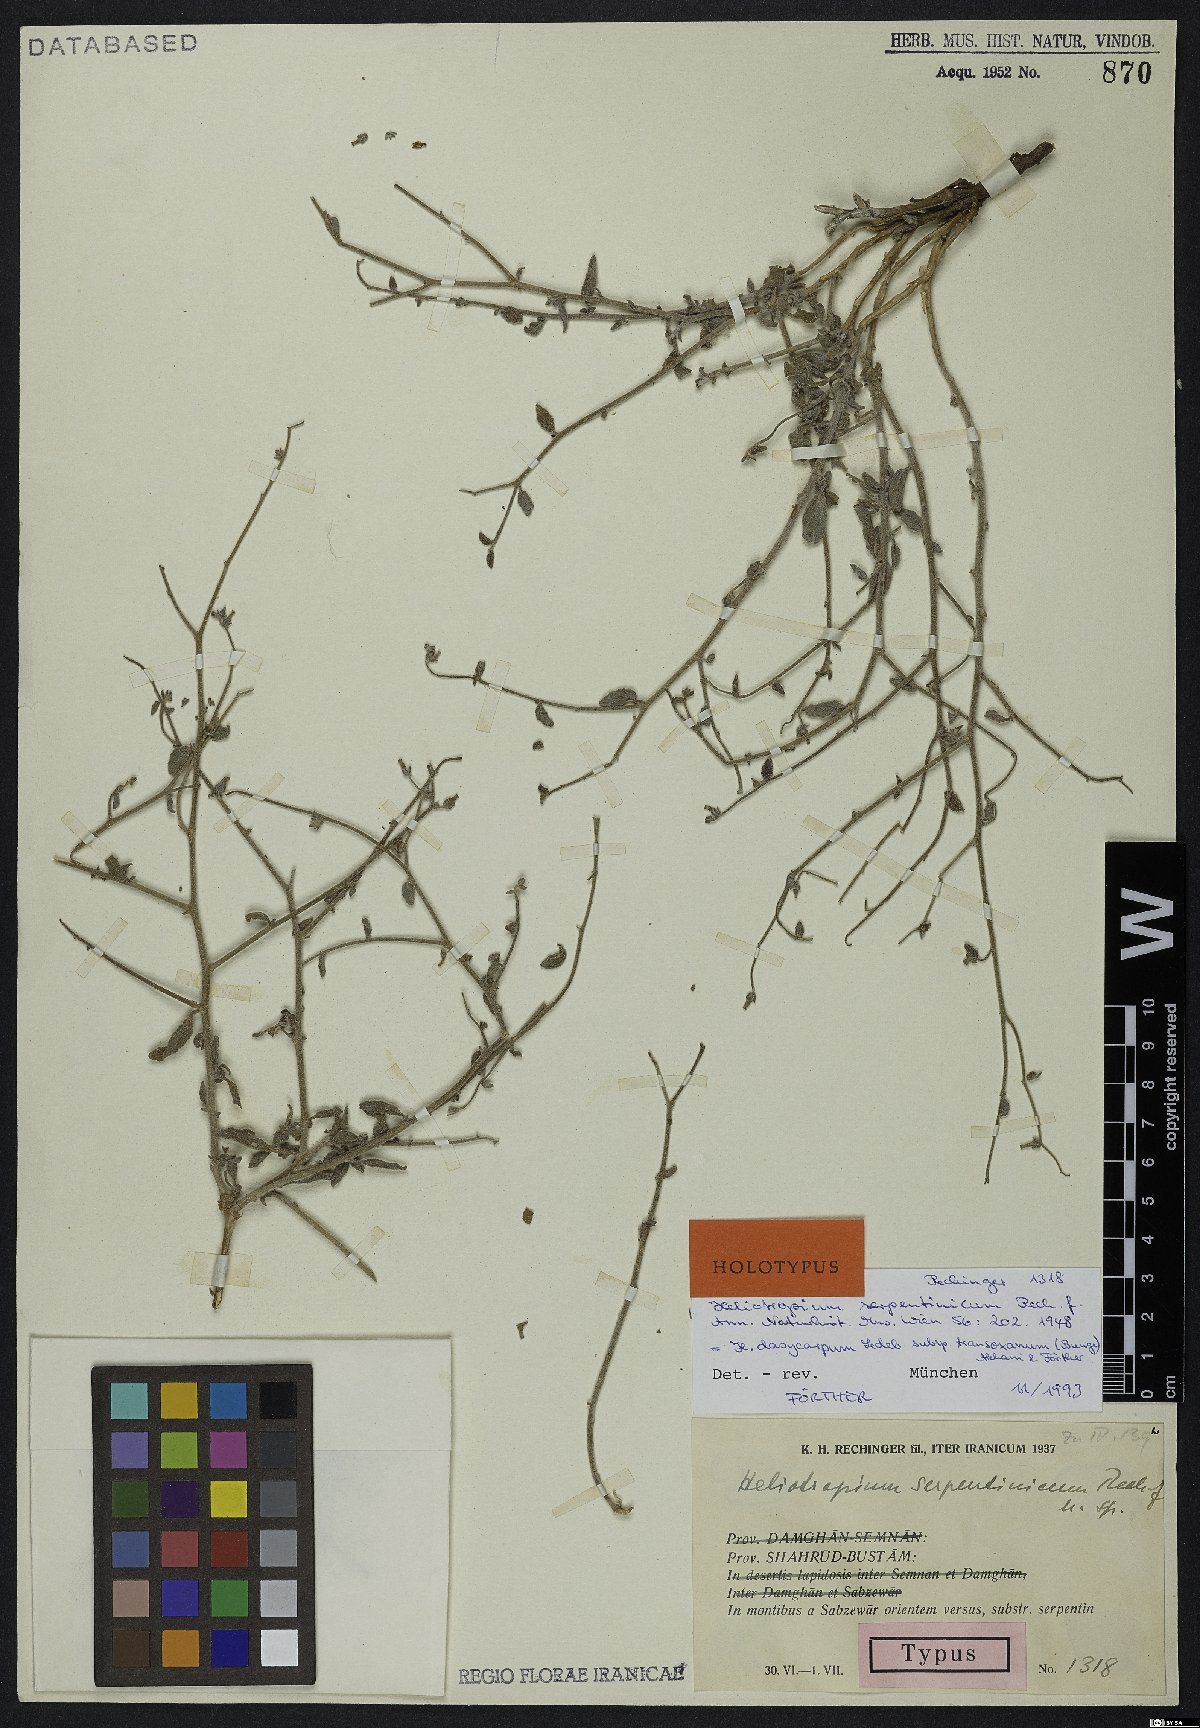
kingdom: Plantae
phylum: Tracheophyta
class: Magnoliopsida
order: Boraginales
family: Heliotropiaceae
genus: Heliotropium
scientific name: Heliotropium dasycarpum
